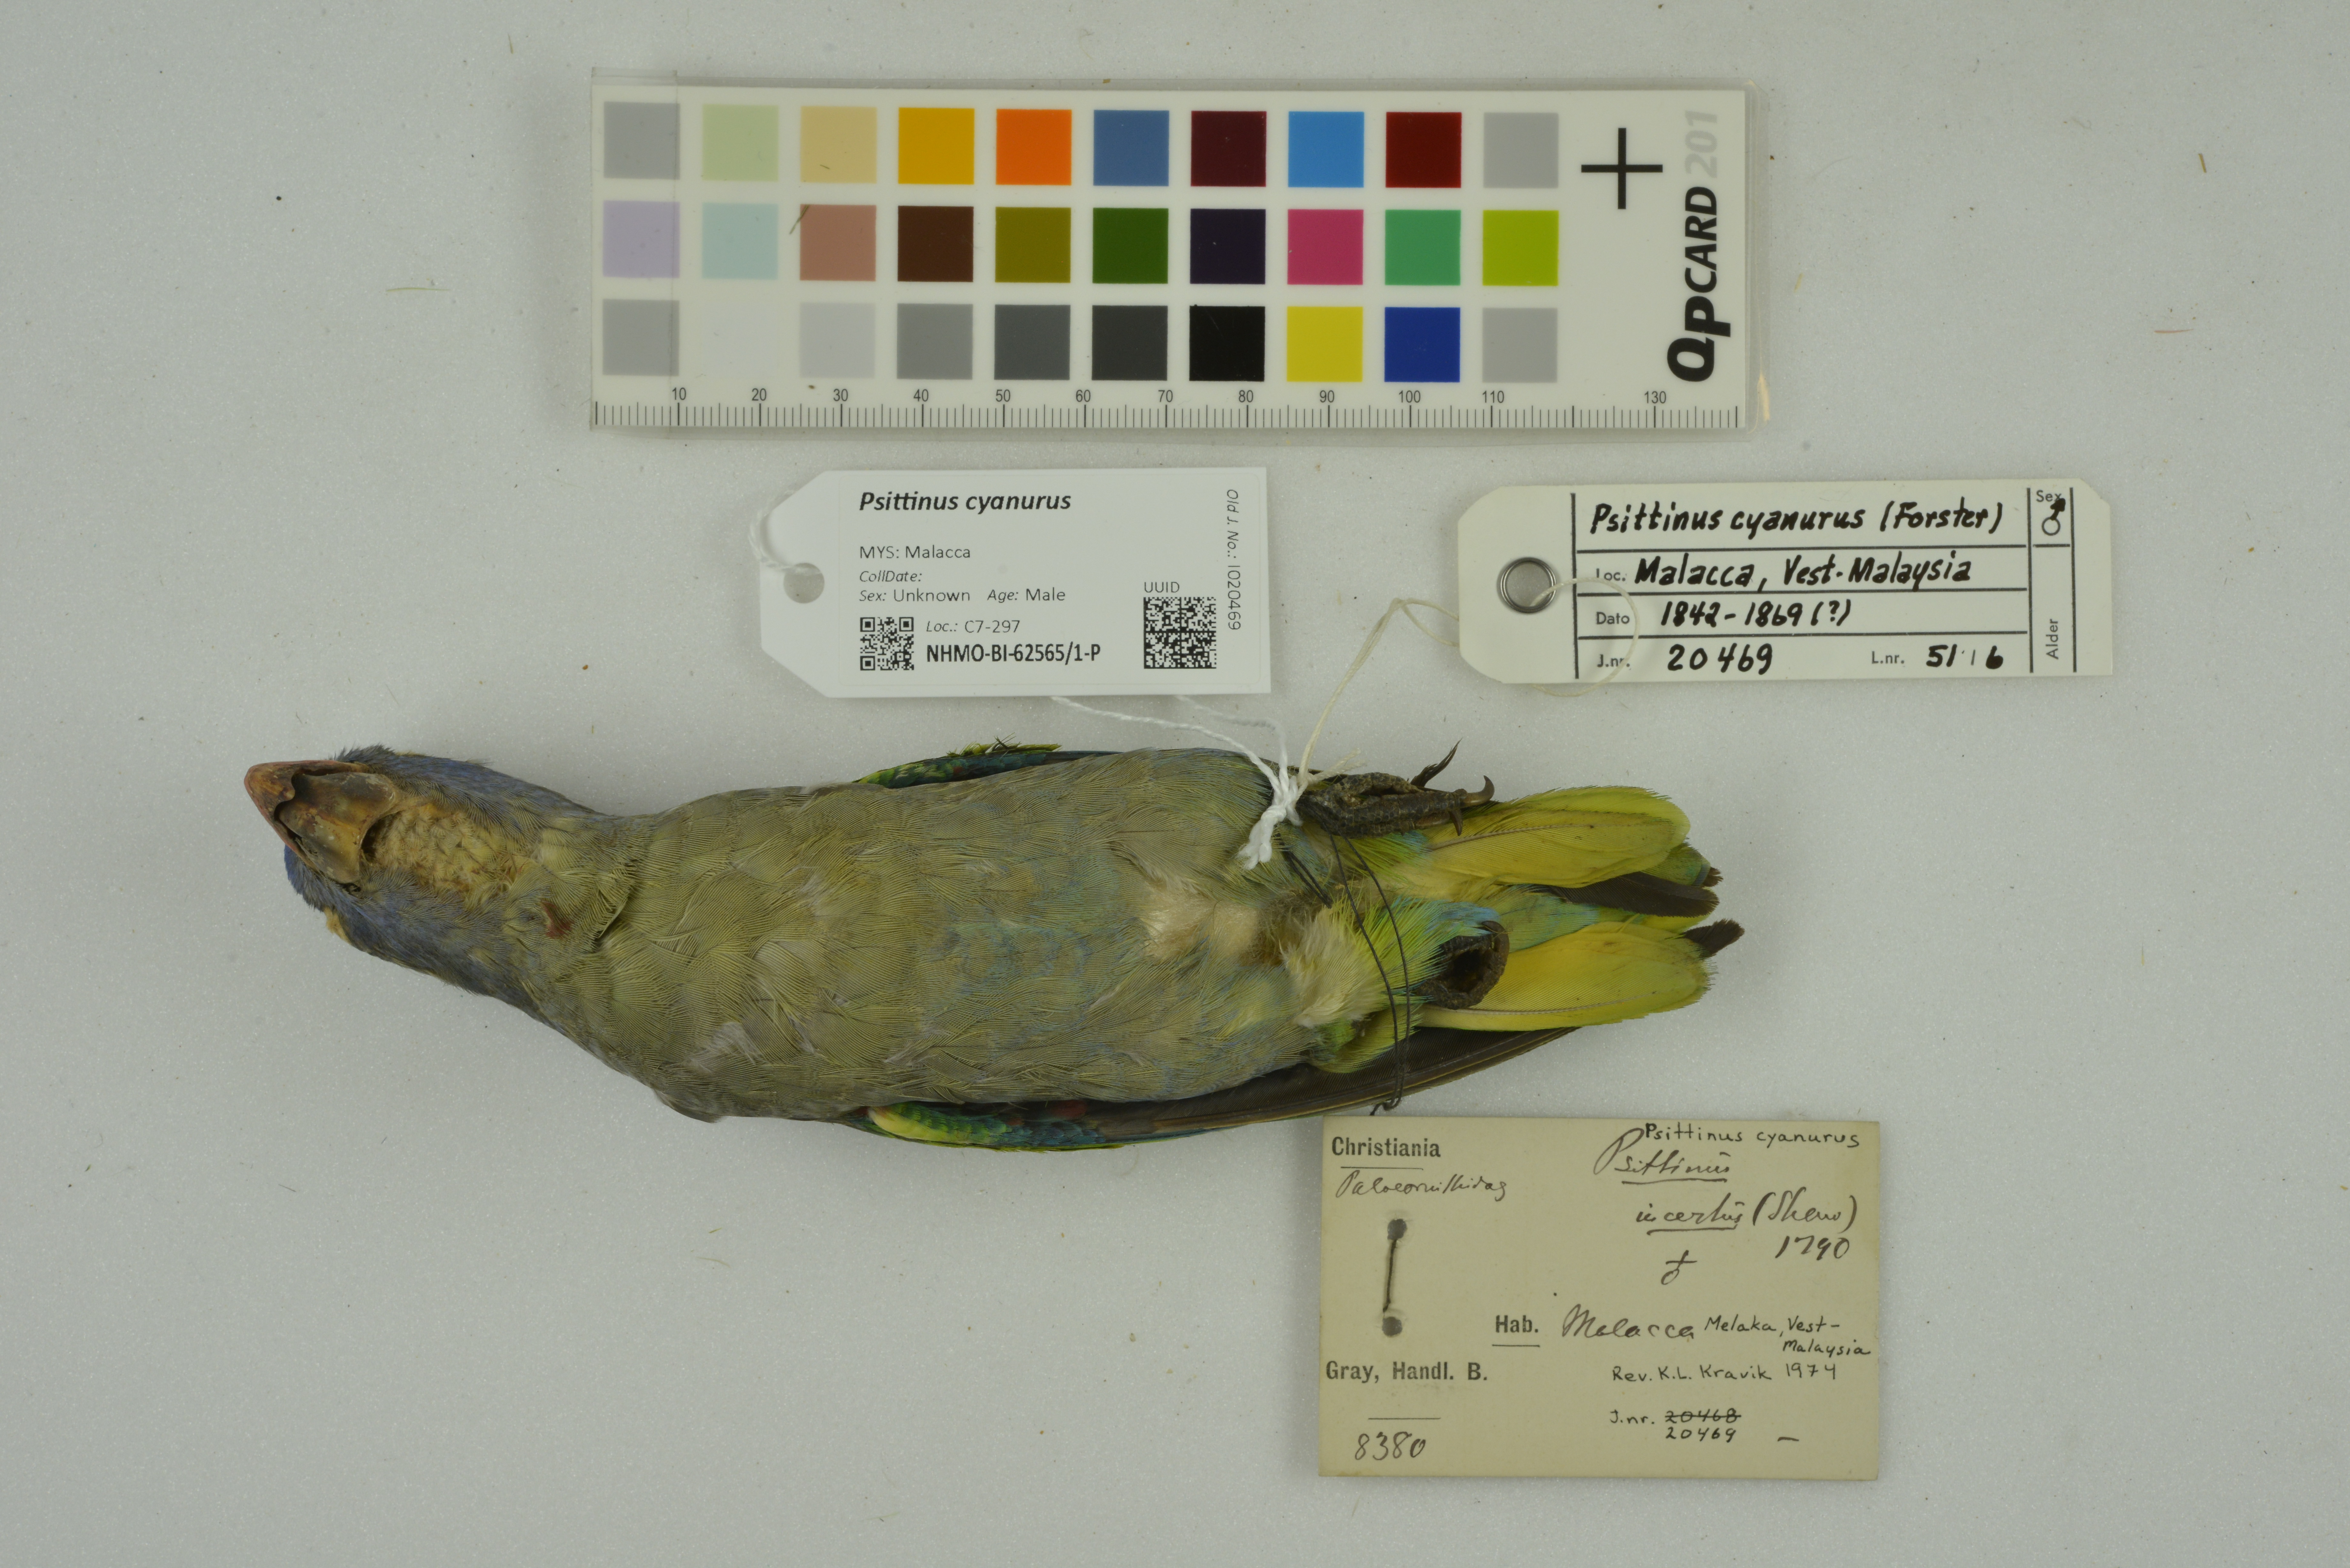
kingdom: Animalia
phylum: Chordata
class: Aves
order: Psittaciformes
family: Psittacidae
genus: Psittinus
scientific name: Psittinus cyanurus
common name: Blue-rumped parrot
